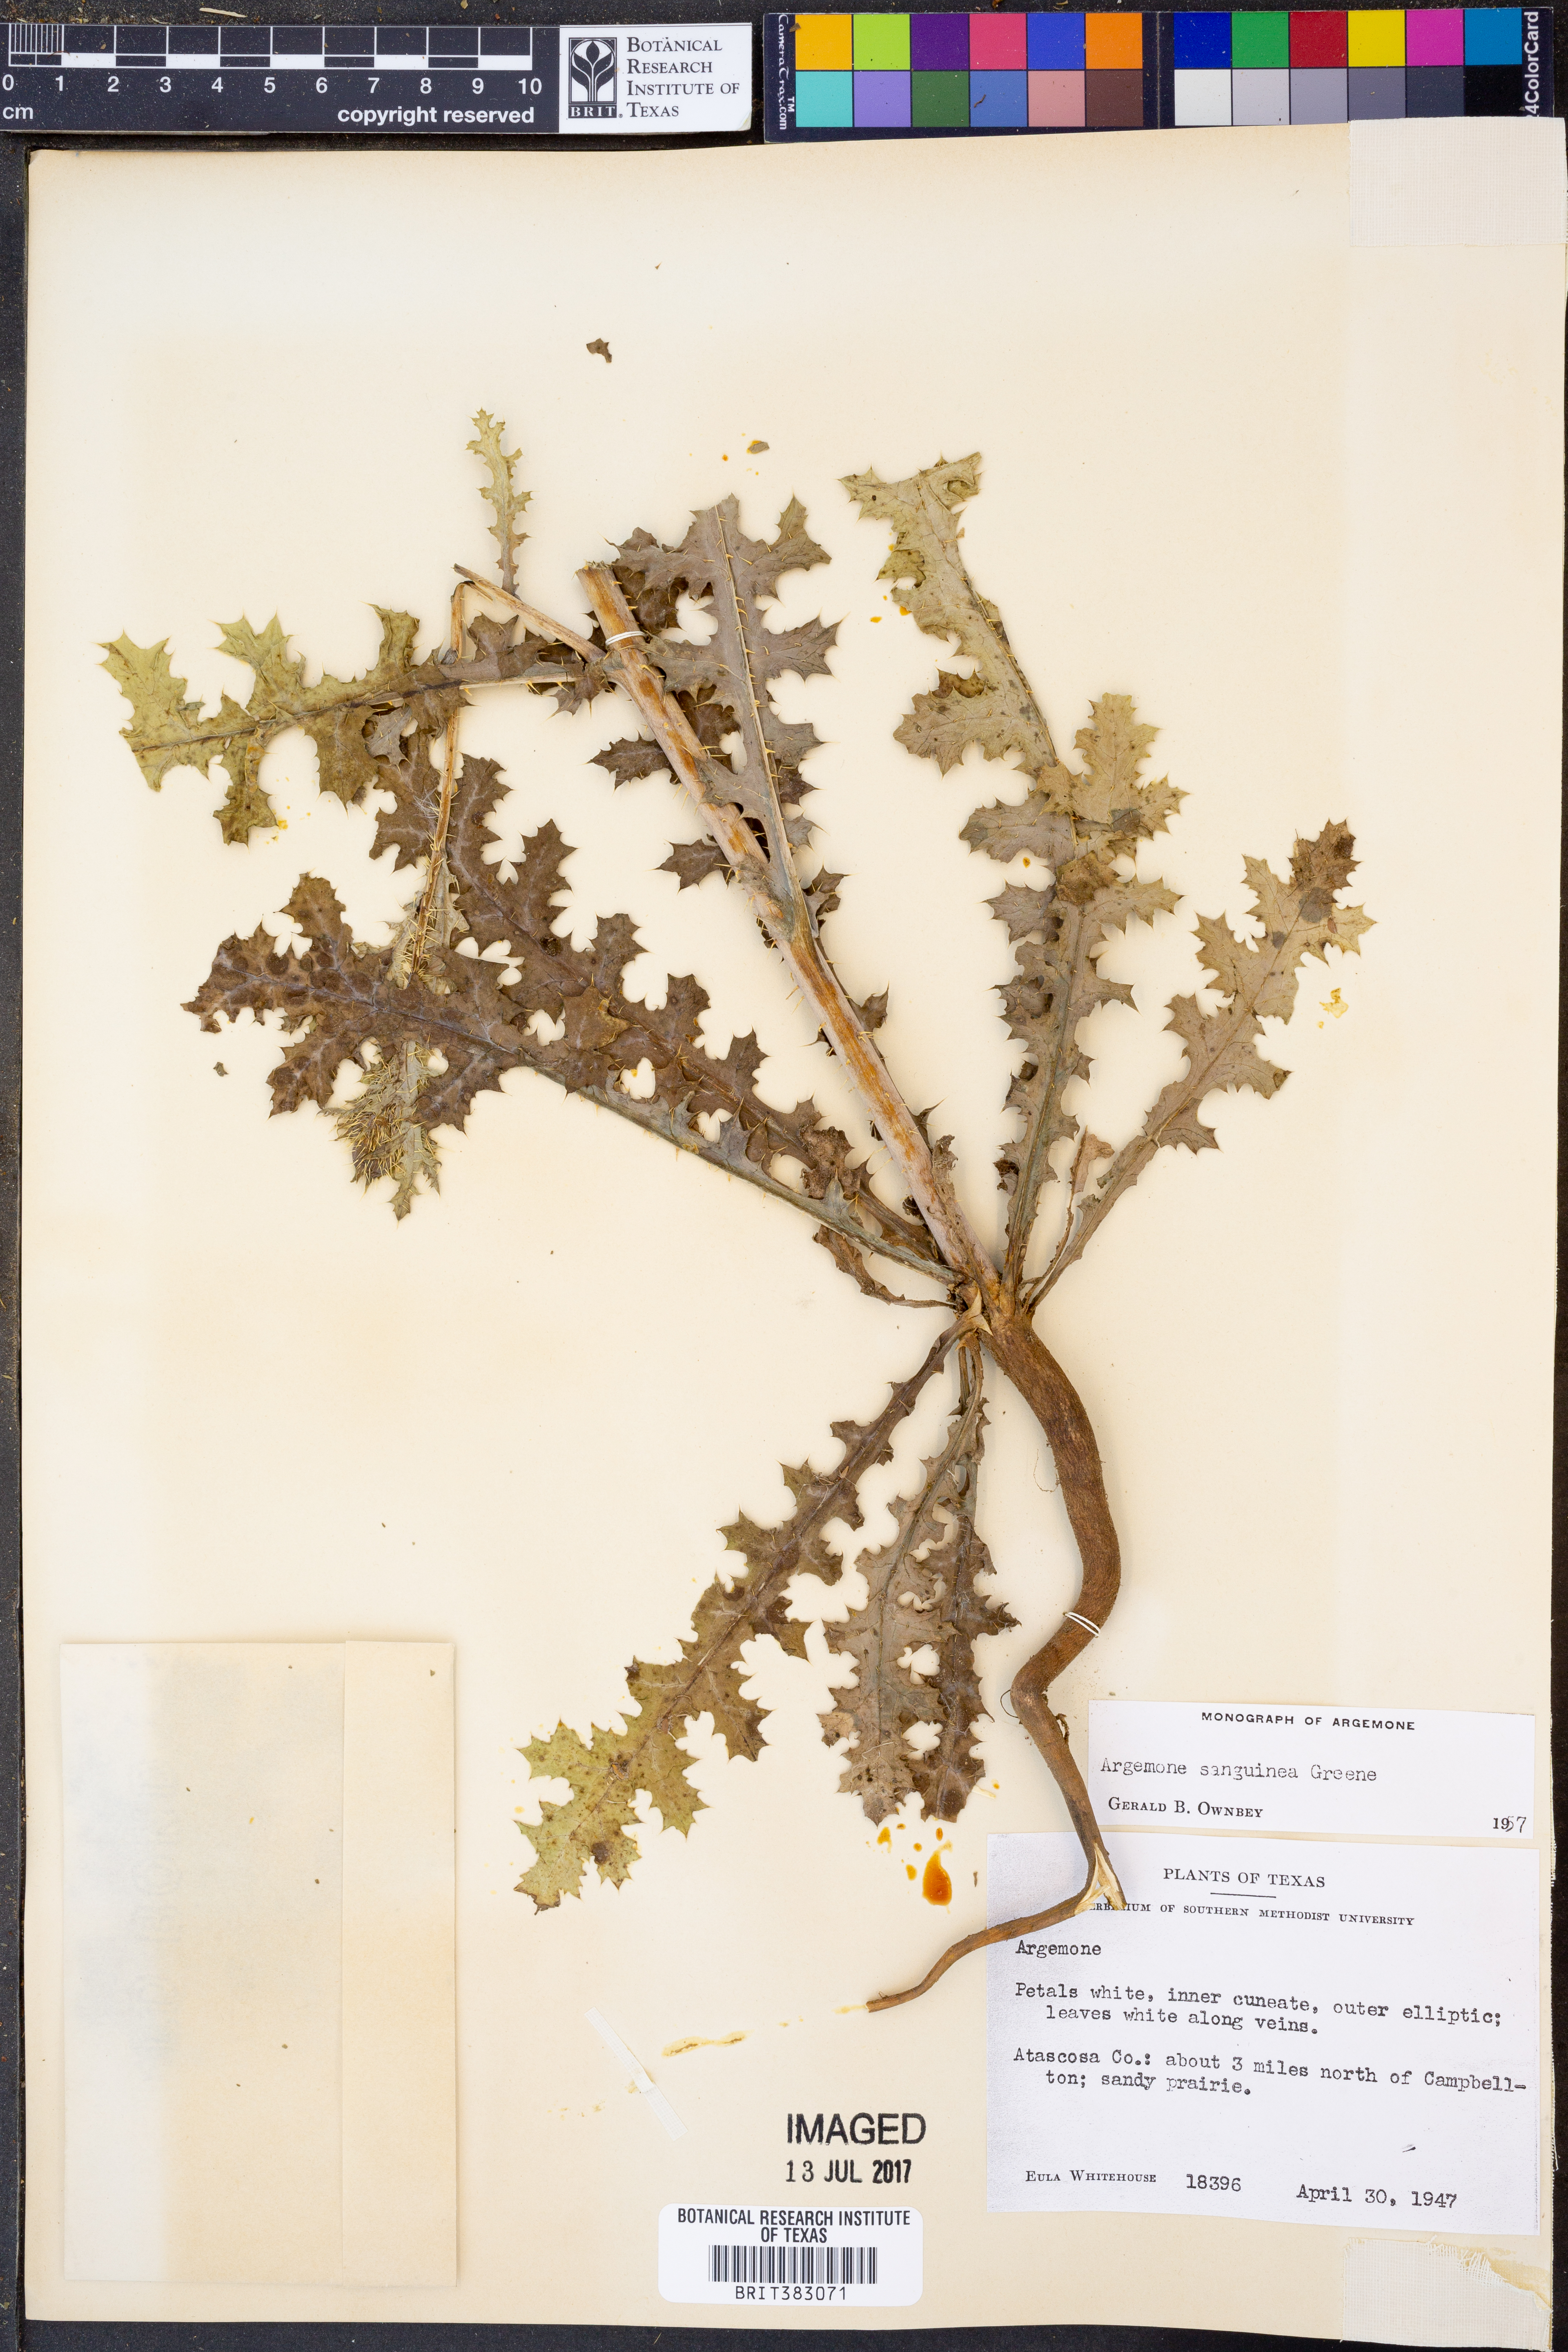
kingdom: Plantae
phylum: Tracheophyta
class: Magnoliopsida
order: Ranunculales
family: Papaveraceae
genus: Argemone
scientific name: Argemone sanguinea
